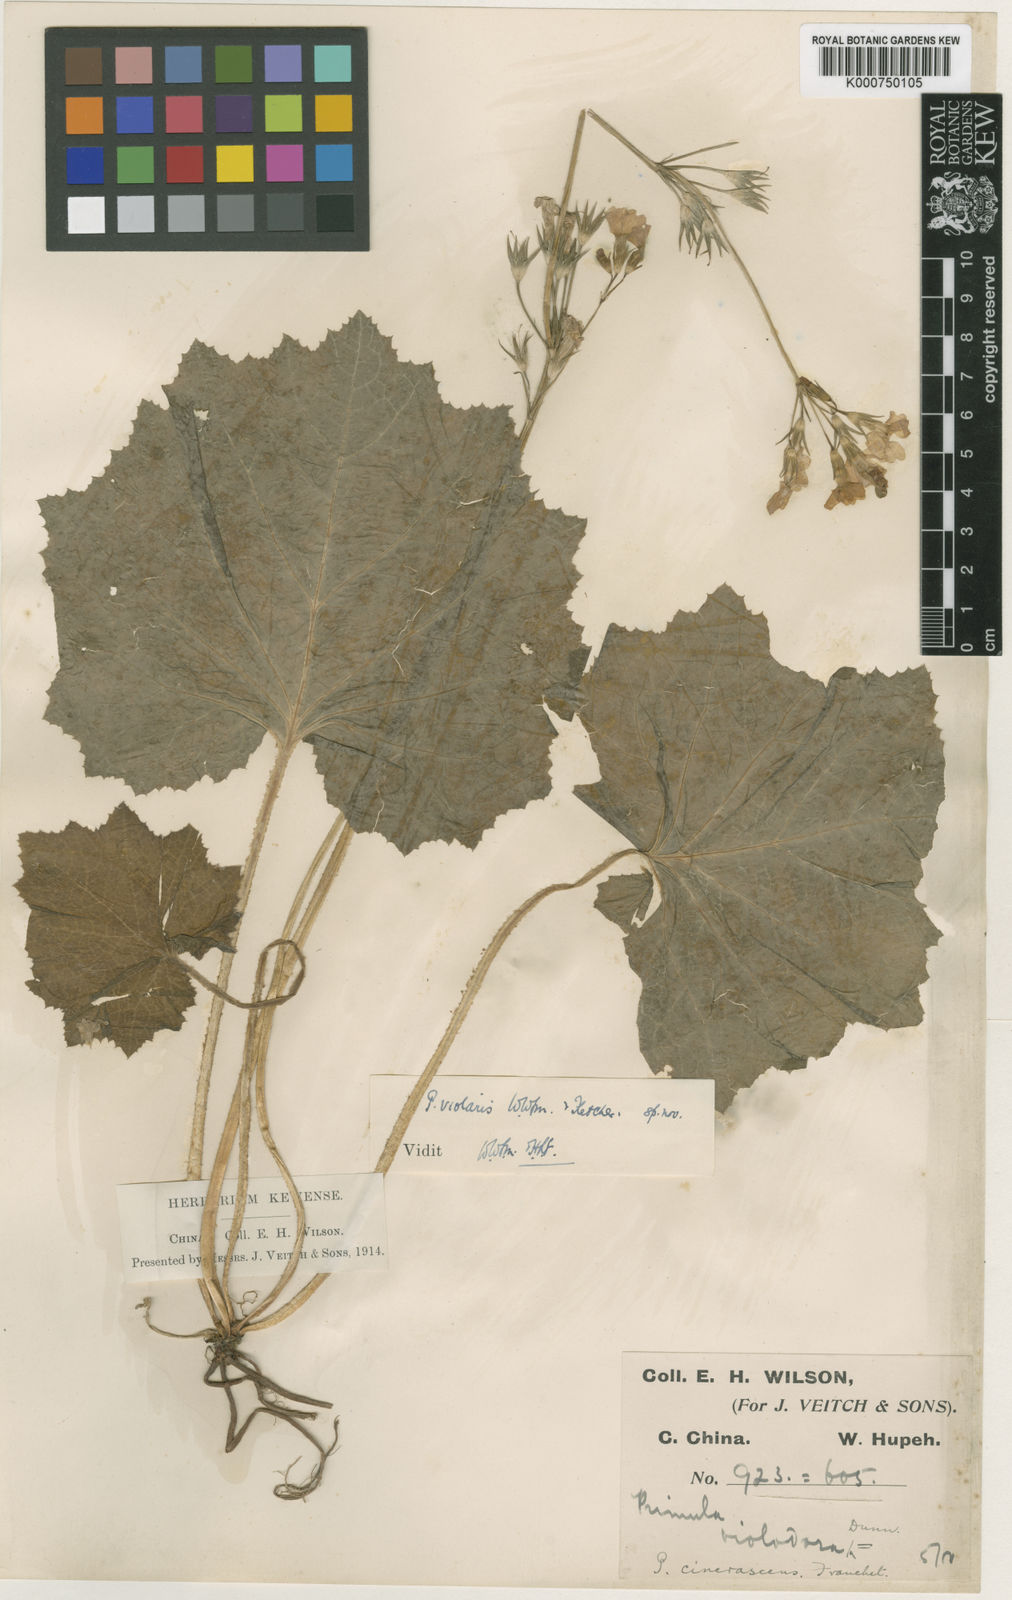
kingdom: Plantae
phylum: Tracheophyta
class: Magnoliopsida
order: Ericales
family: Primulaceae
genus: Primula
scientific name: Primula violaris
